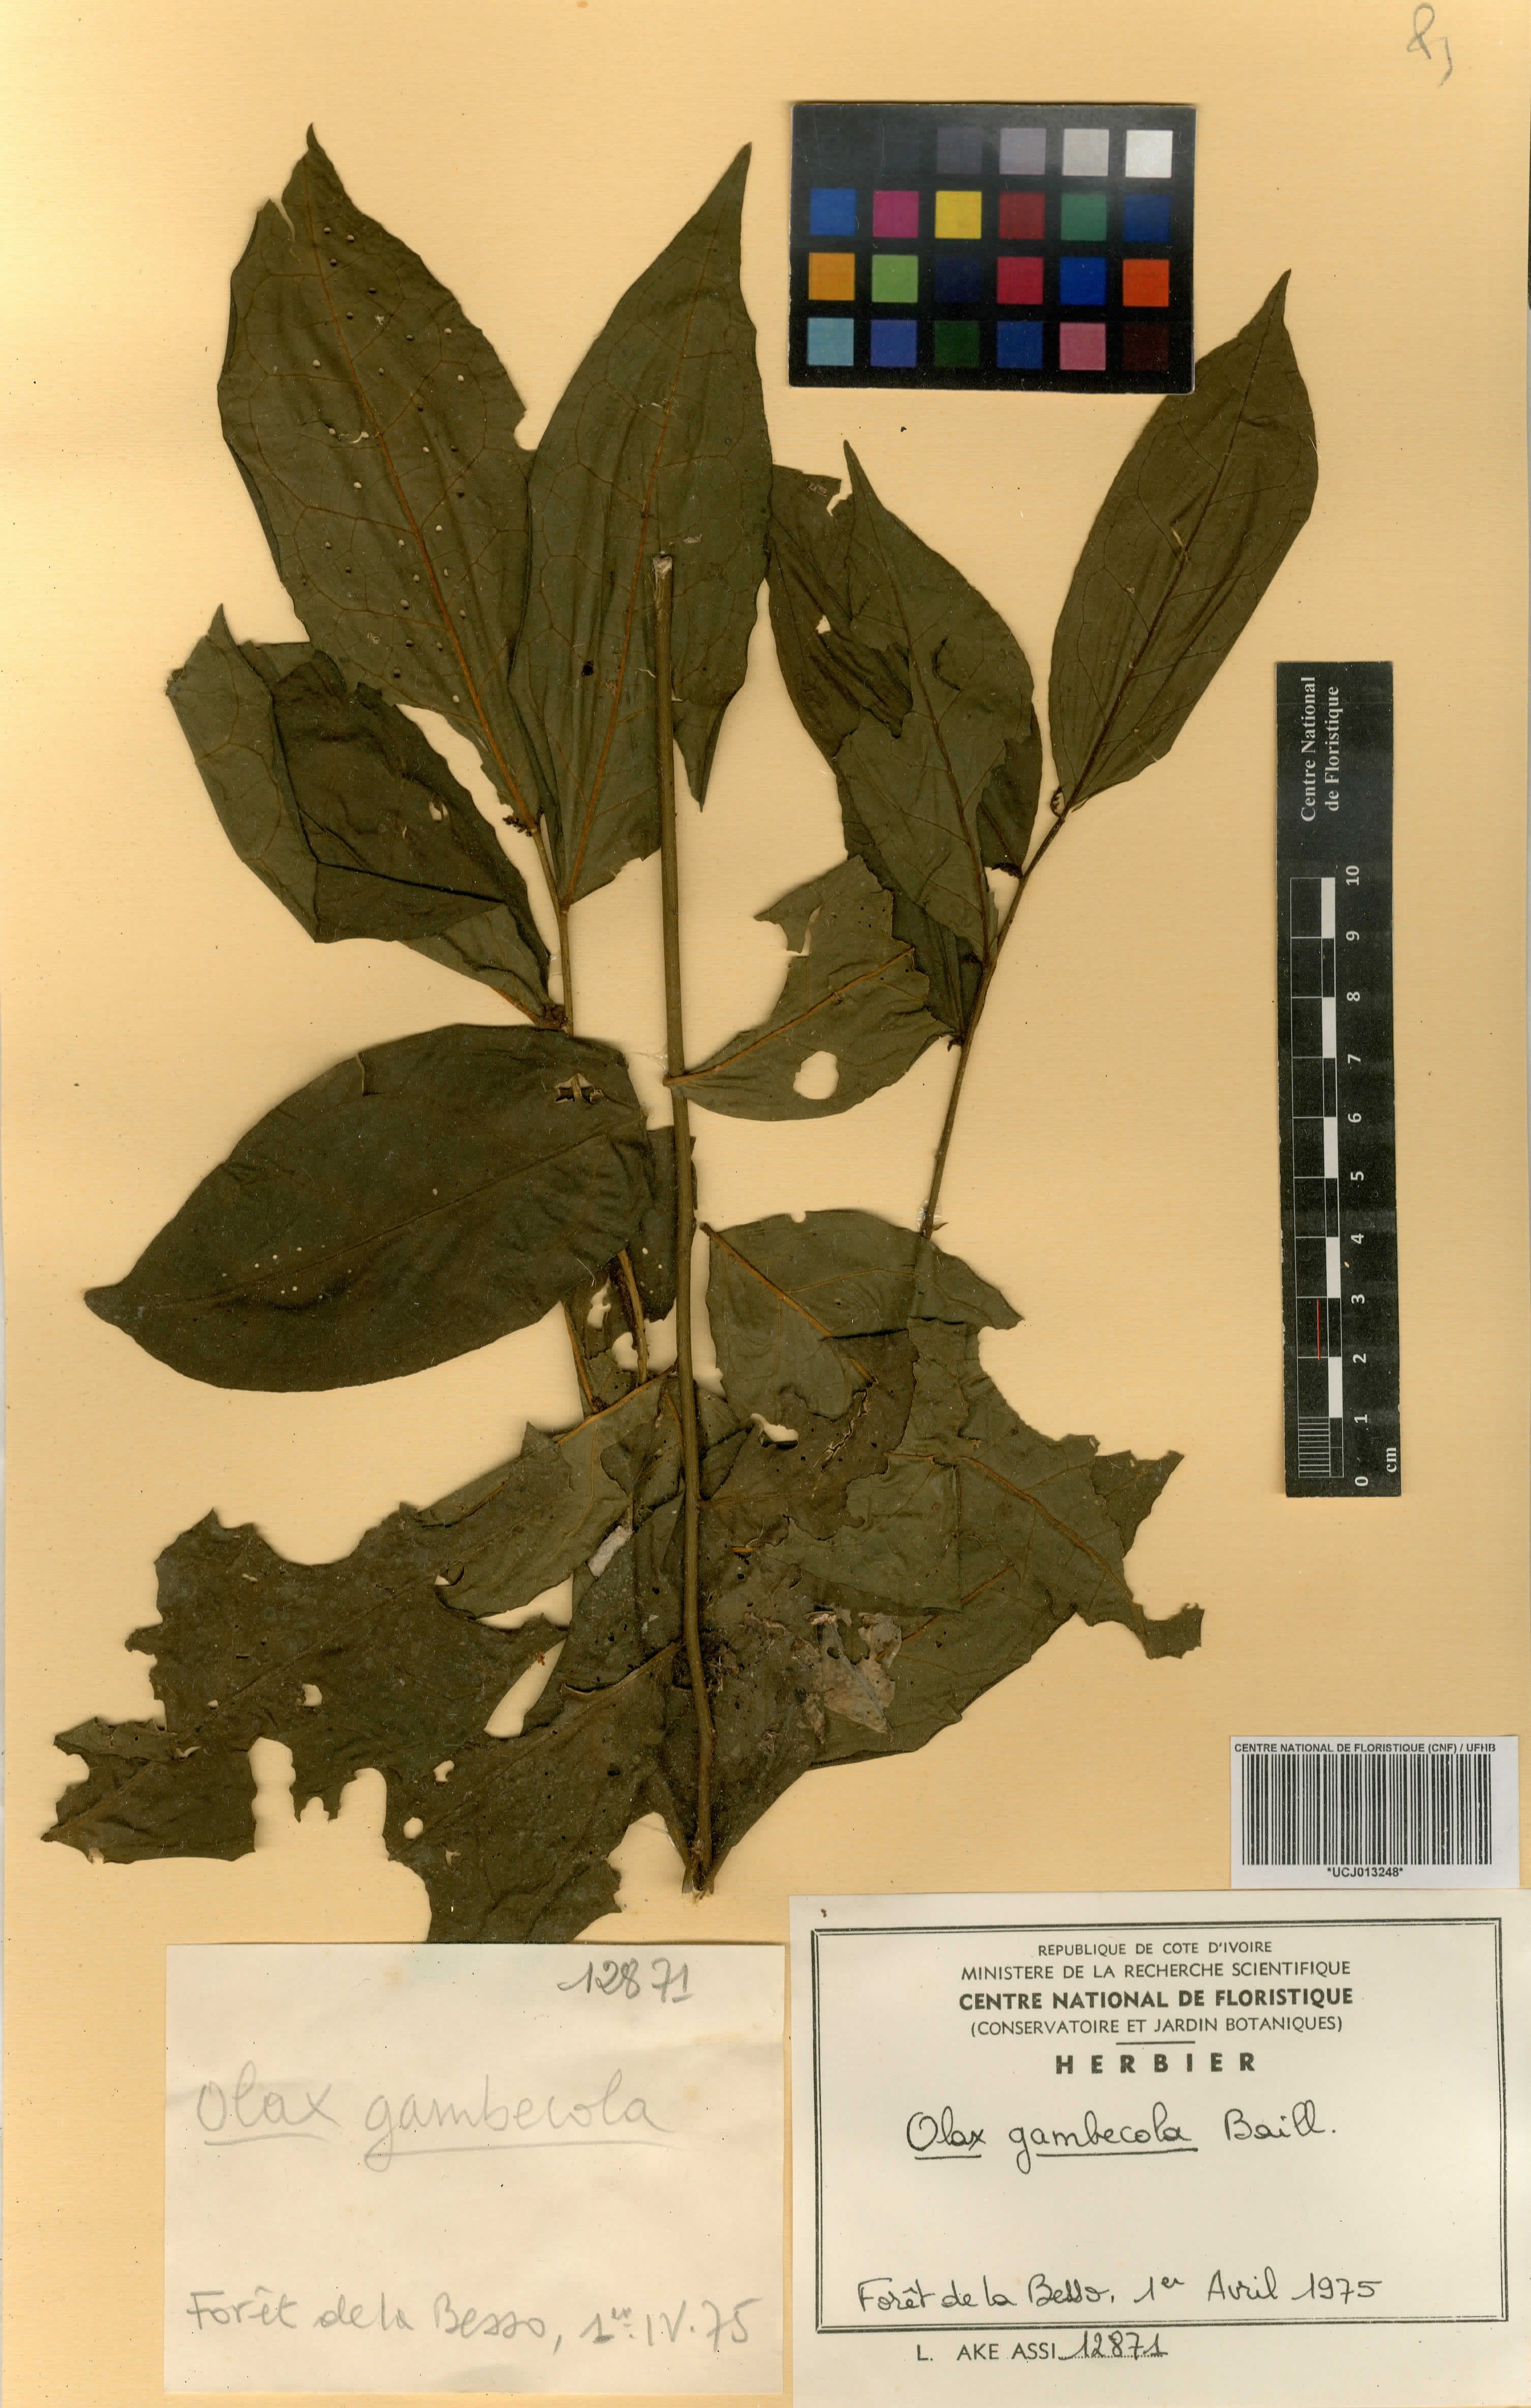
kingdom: Plantae
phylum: Tracheophyta
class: Magnoliopsida
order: Santalales
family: Olacaceae
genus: Olax
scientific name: Olax gambecola
